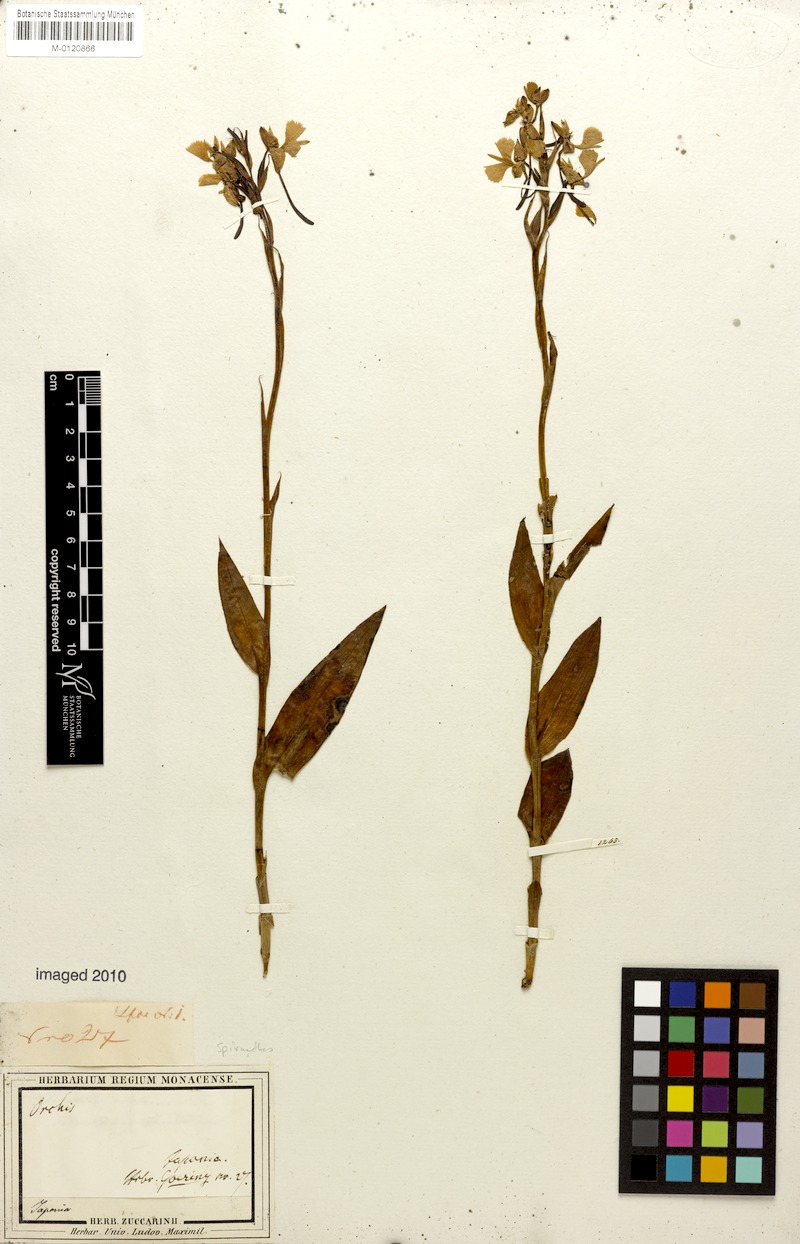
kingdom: Plantae
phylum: Tracheophyta
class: Liliopsida
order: Asparagales
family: Orchidaceae
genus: Spiranthes
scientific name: Spiranthes
